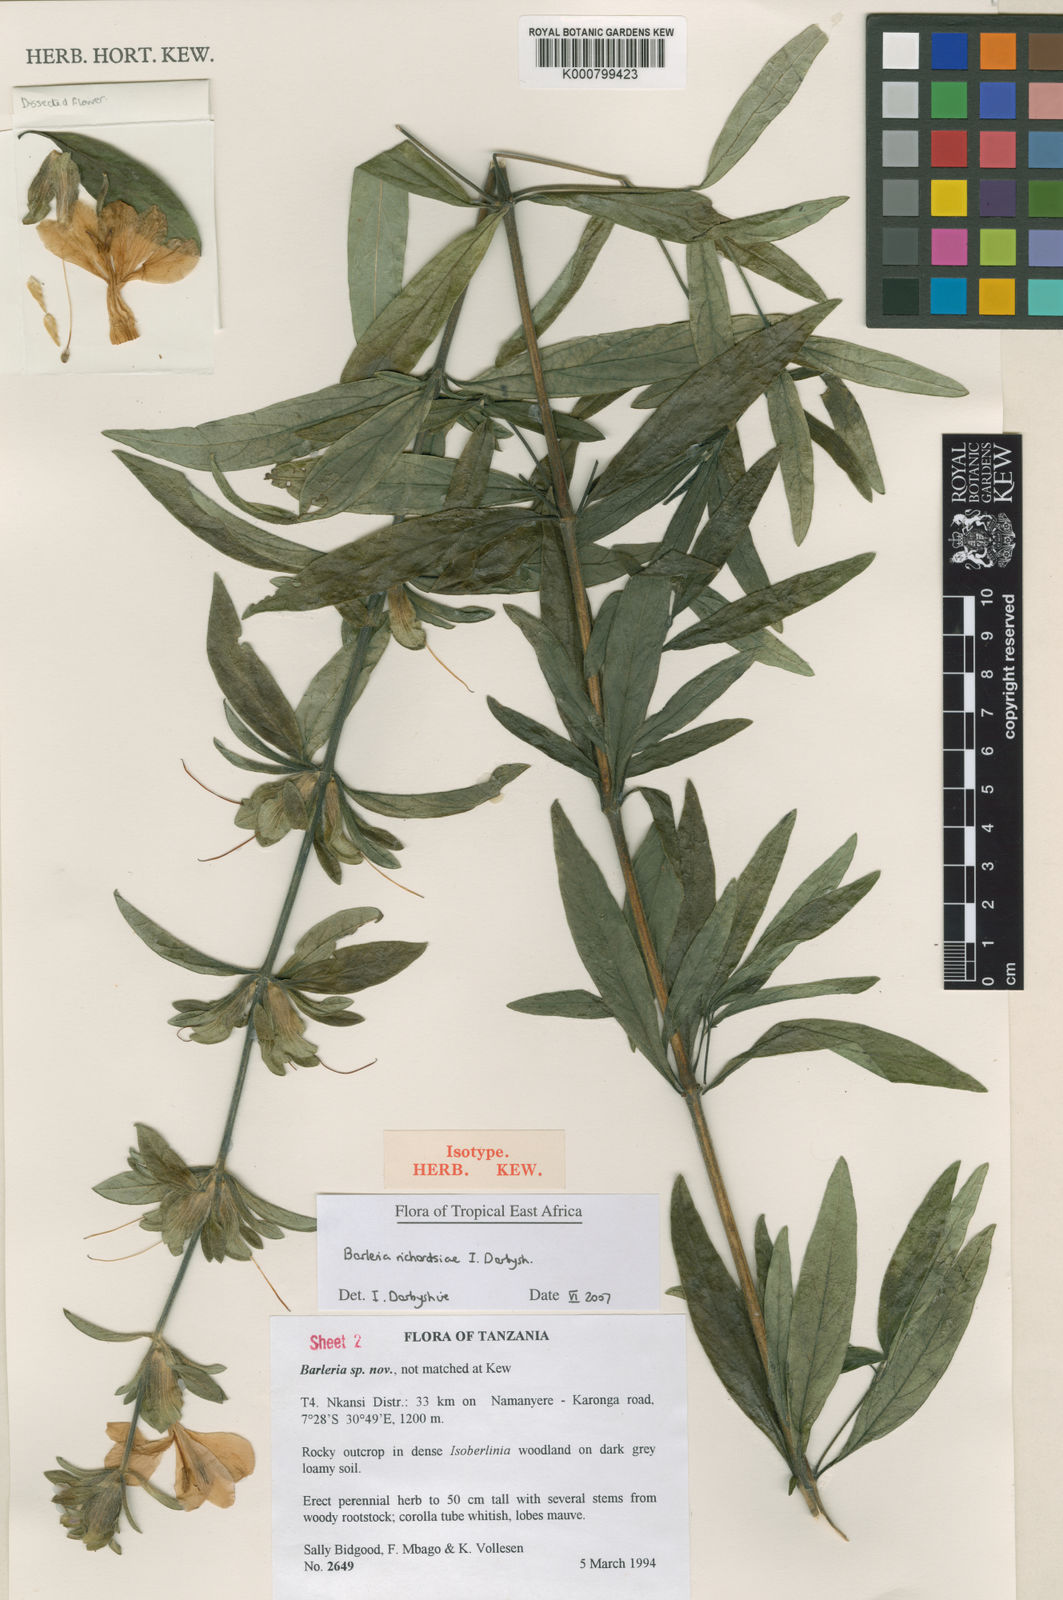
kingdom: Plantae
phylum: Tracheophyta
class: Magnoliopsida
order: Lamiales
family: Acanthaceae
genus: Barleria
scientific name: Barleria richardsiae
